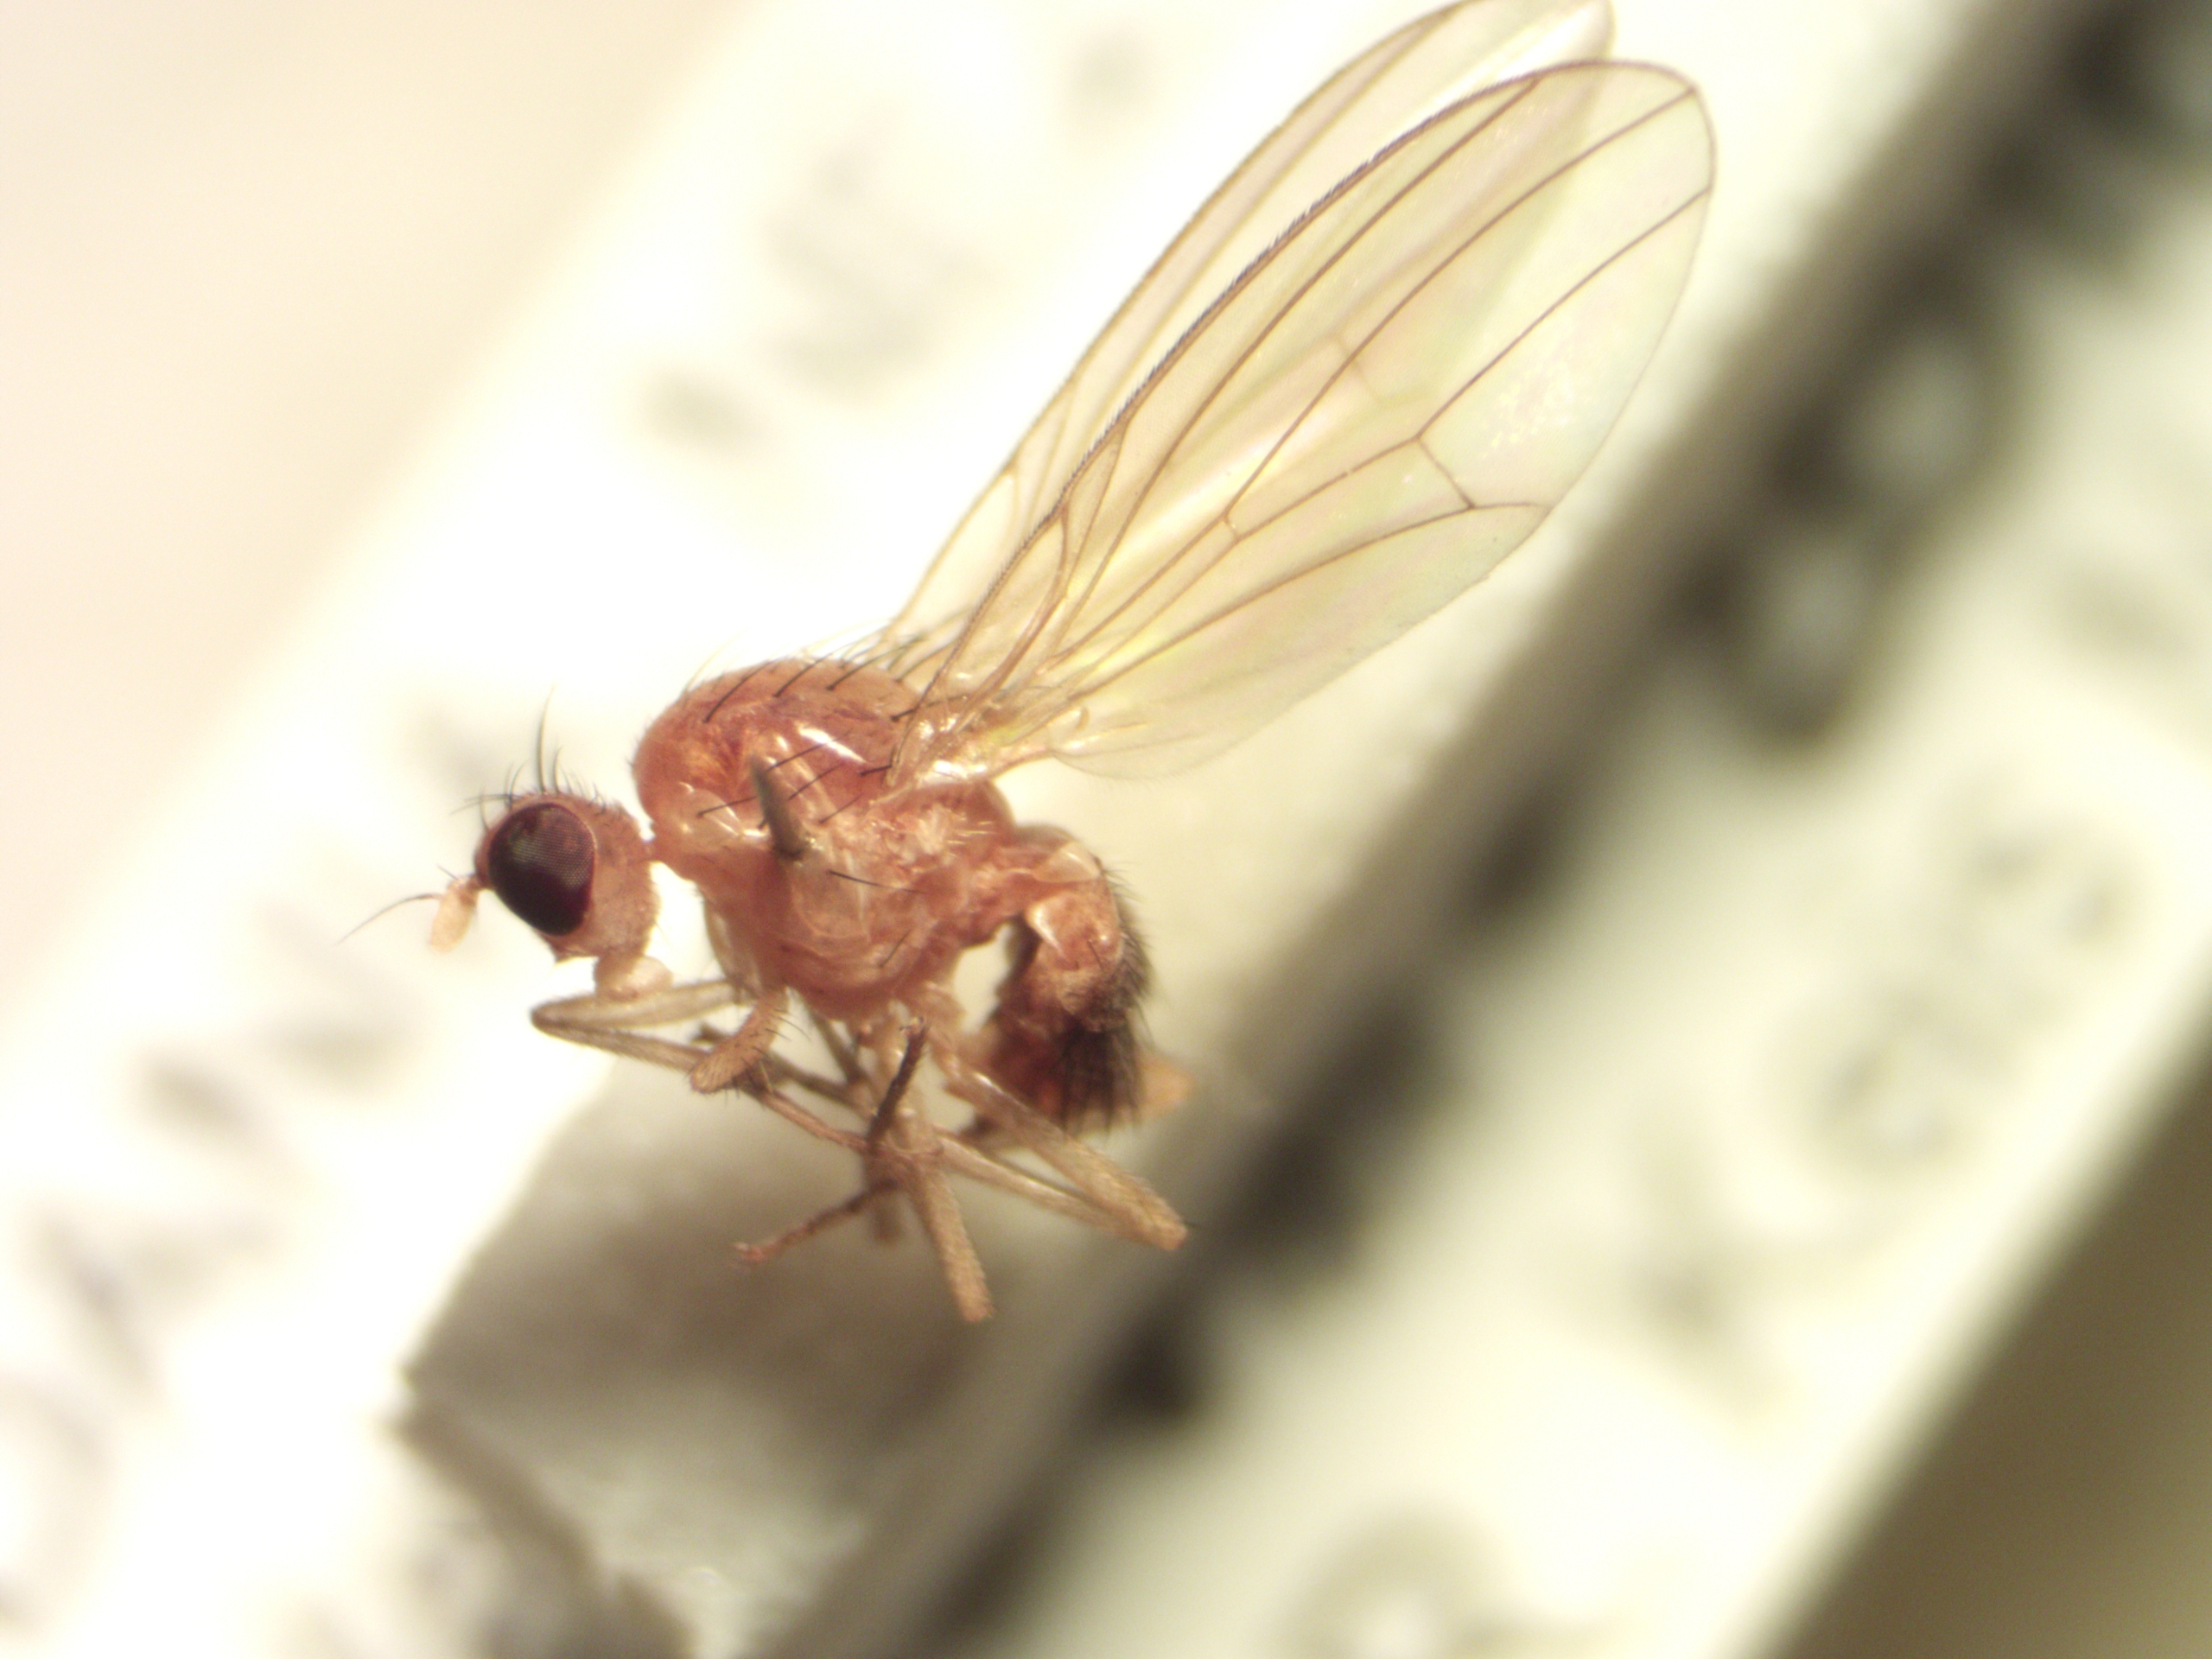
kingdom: Animalia
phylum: Arthropoda
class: Insecta
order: Diptera
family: Lauxaniidae
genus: Meiosimyza
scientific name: Meiosimyza platycephala
